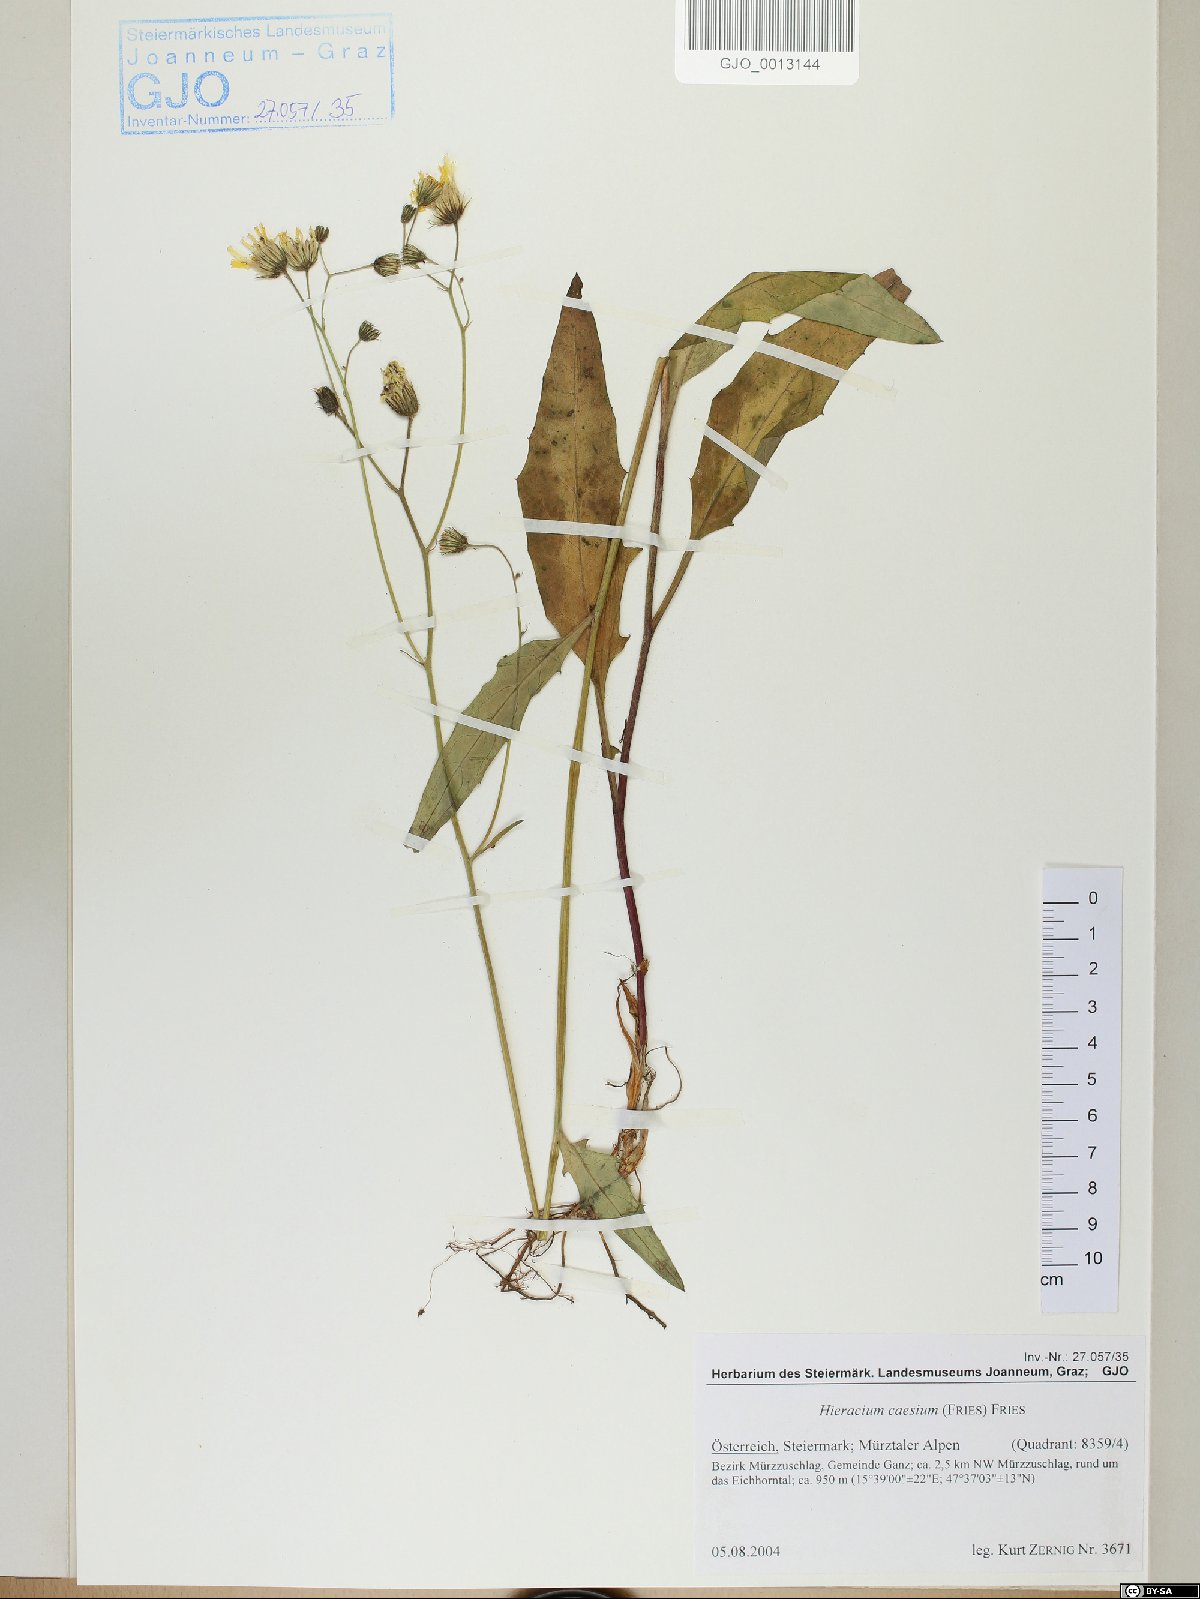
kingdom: Plantae
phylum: Tracheophyta
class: Magnoliopsida
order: Asterales
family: Asteraceae
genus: Hieracium
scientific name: Hieracium caesium
